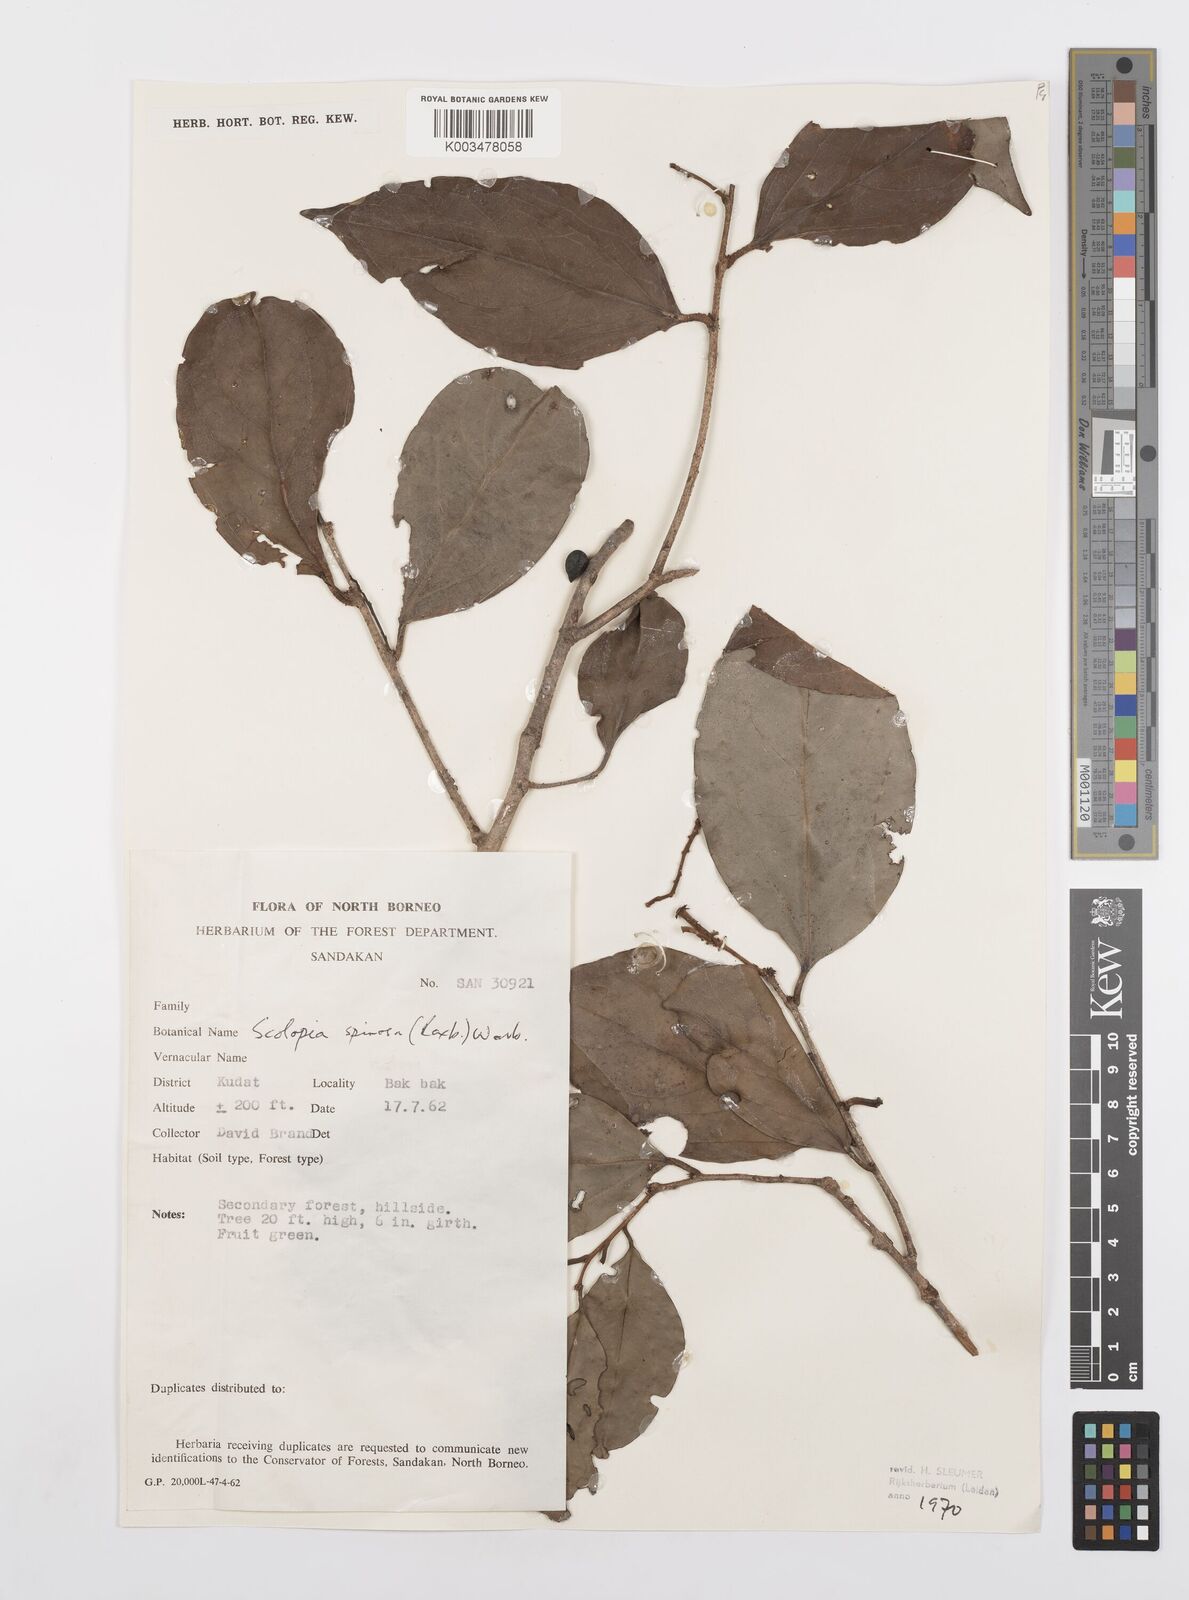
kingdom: Plantae
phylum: Tracheophyta
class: Magnoliopsida
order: Malpighiales
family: Salicaceae
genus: Scolopia
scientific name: Scolopia spinosa
